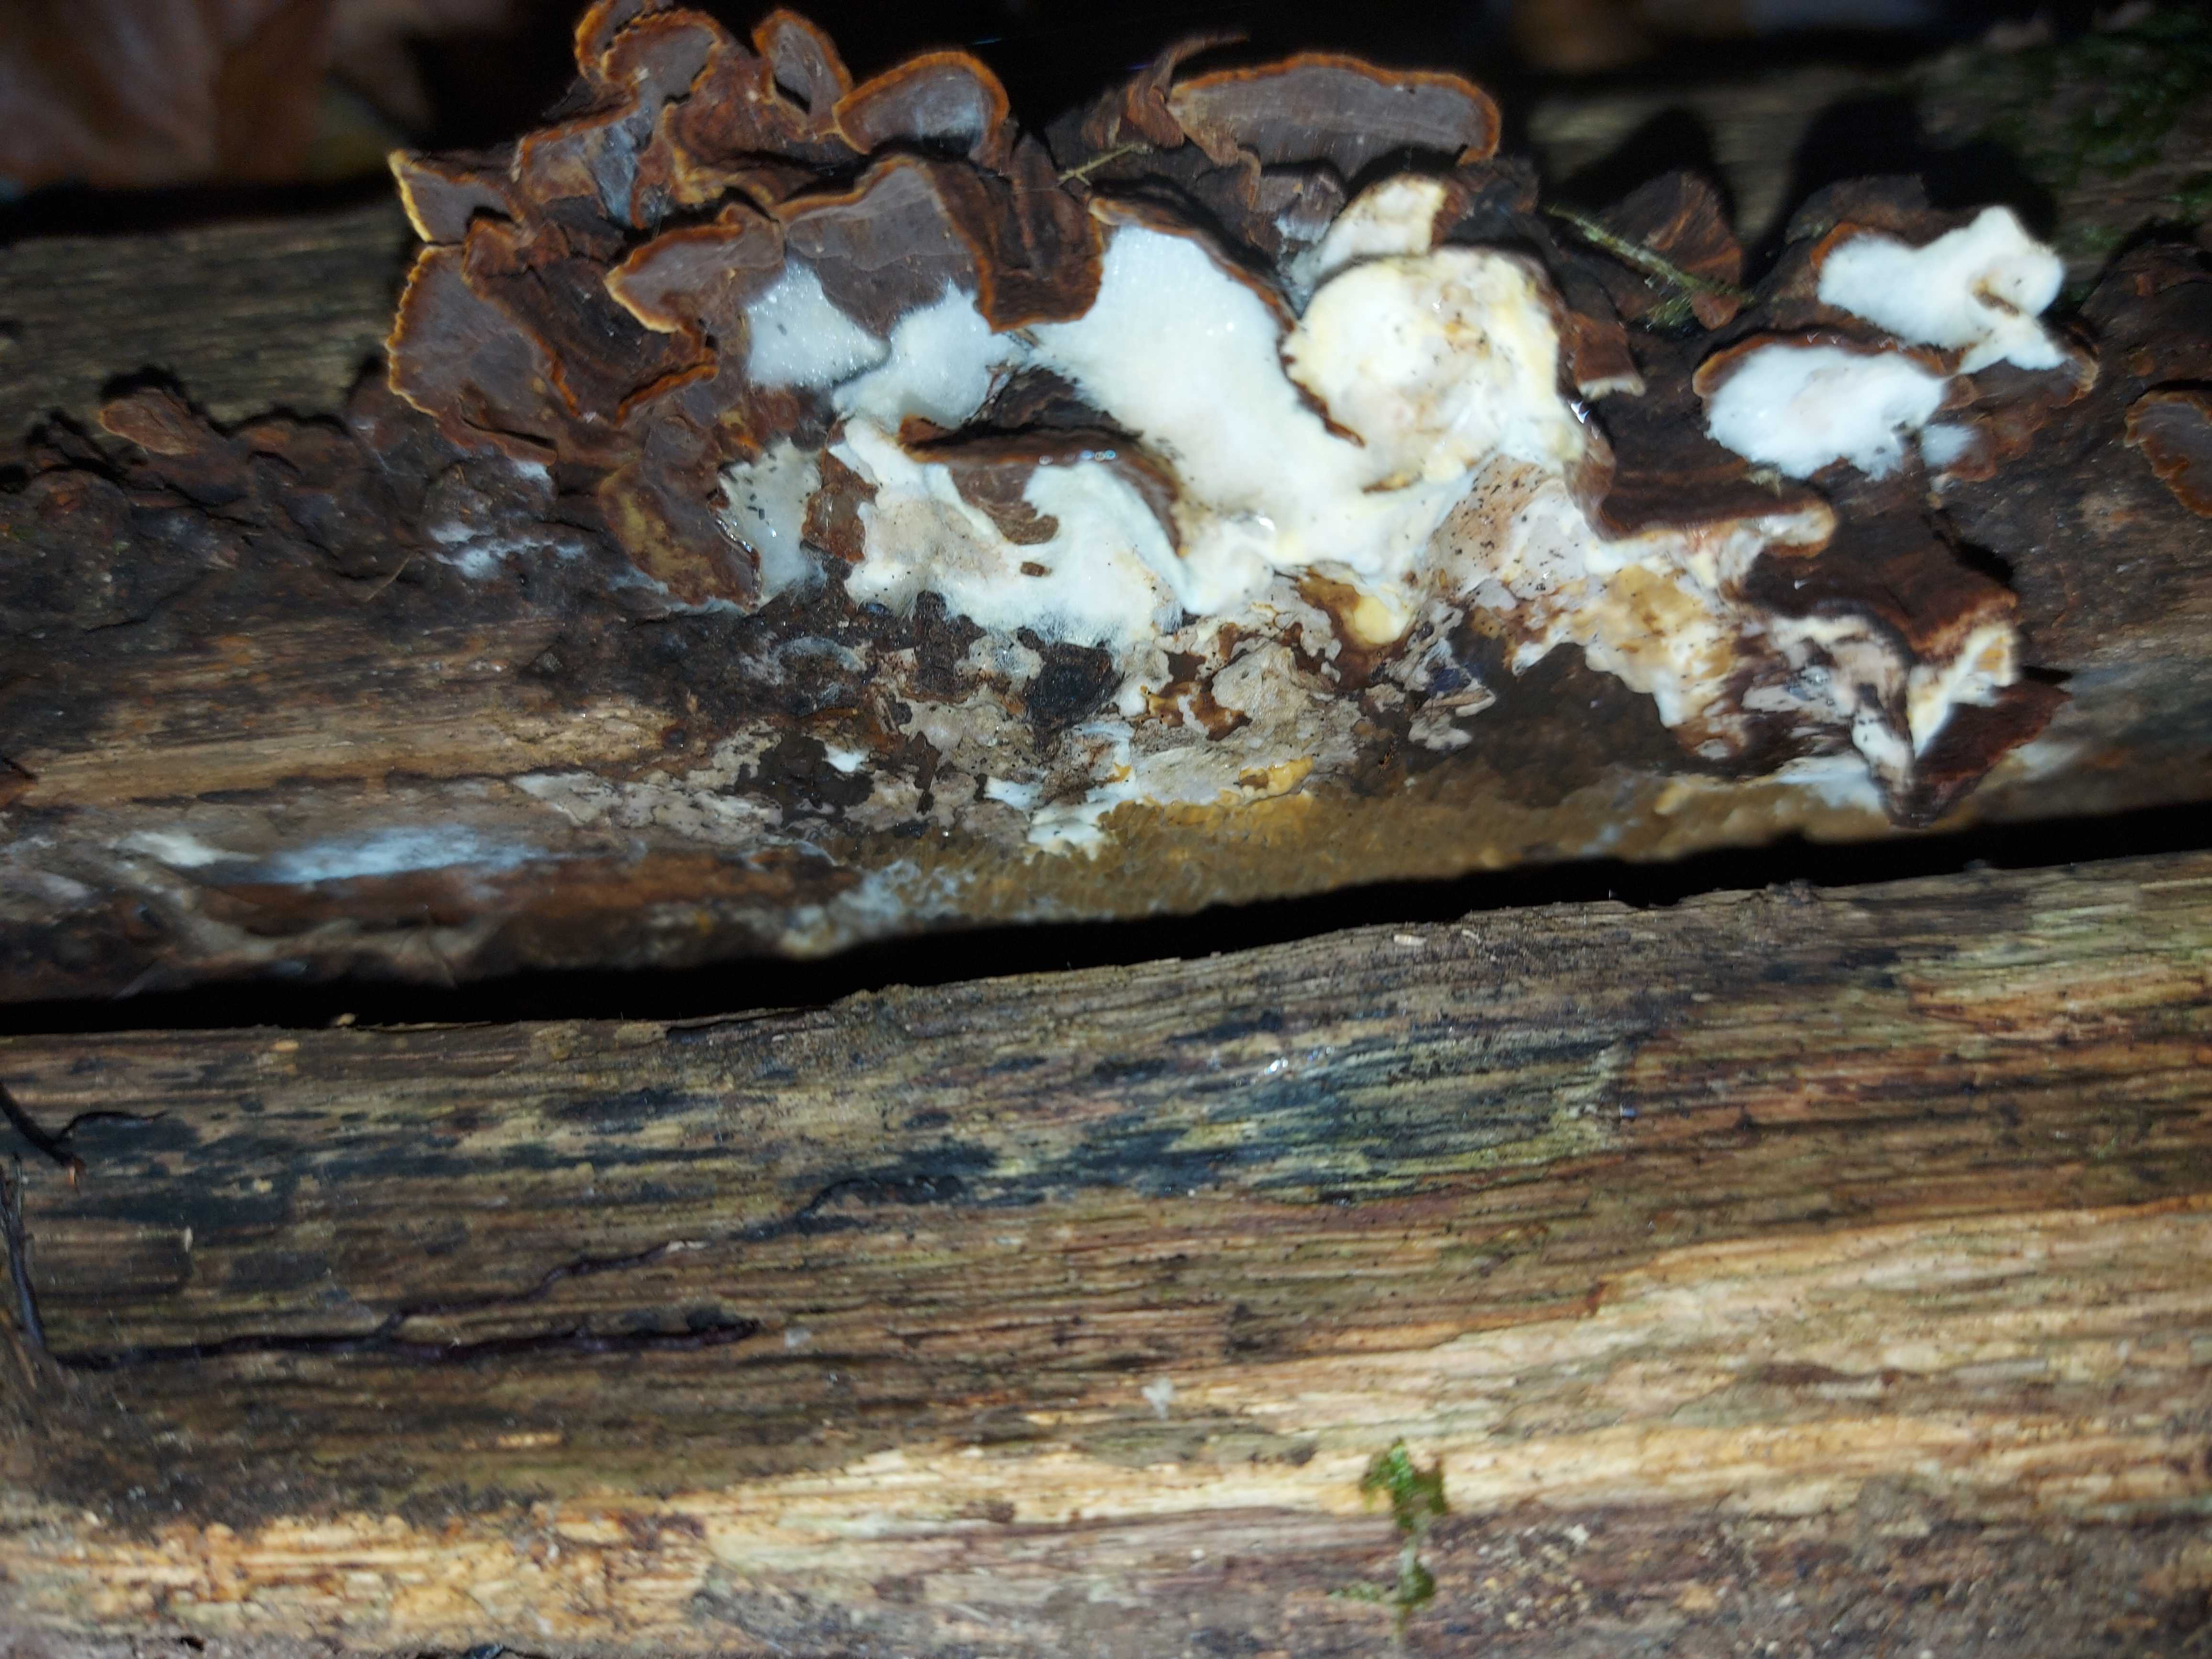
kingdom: Fungi
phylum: Basidiomycota
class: Agaricomycetes
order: Boletales
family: Serpulaceae
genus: Serpula
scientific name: Serpula
